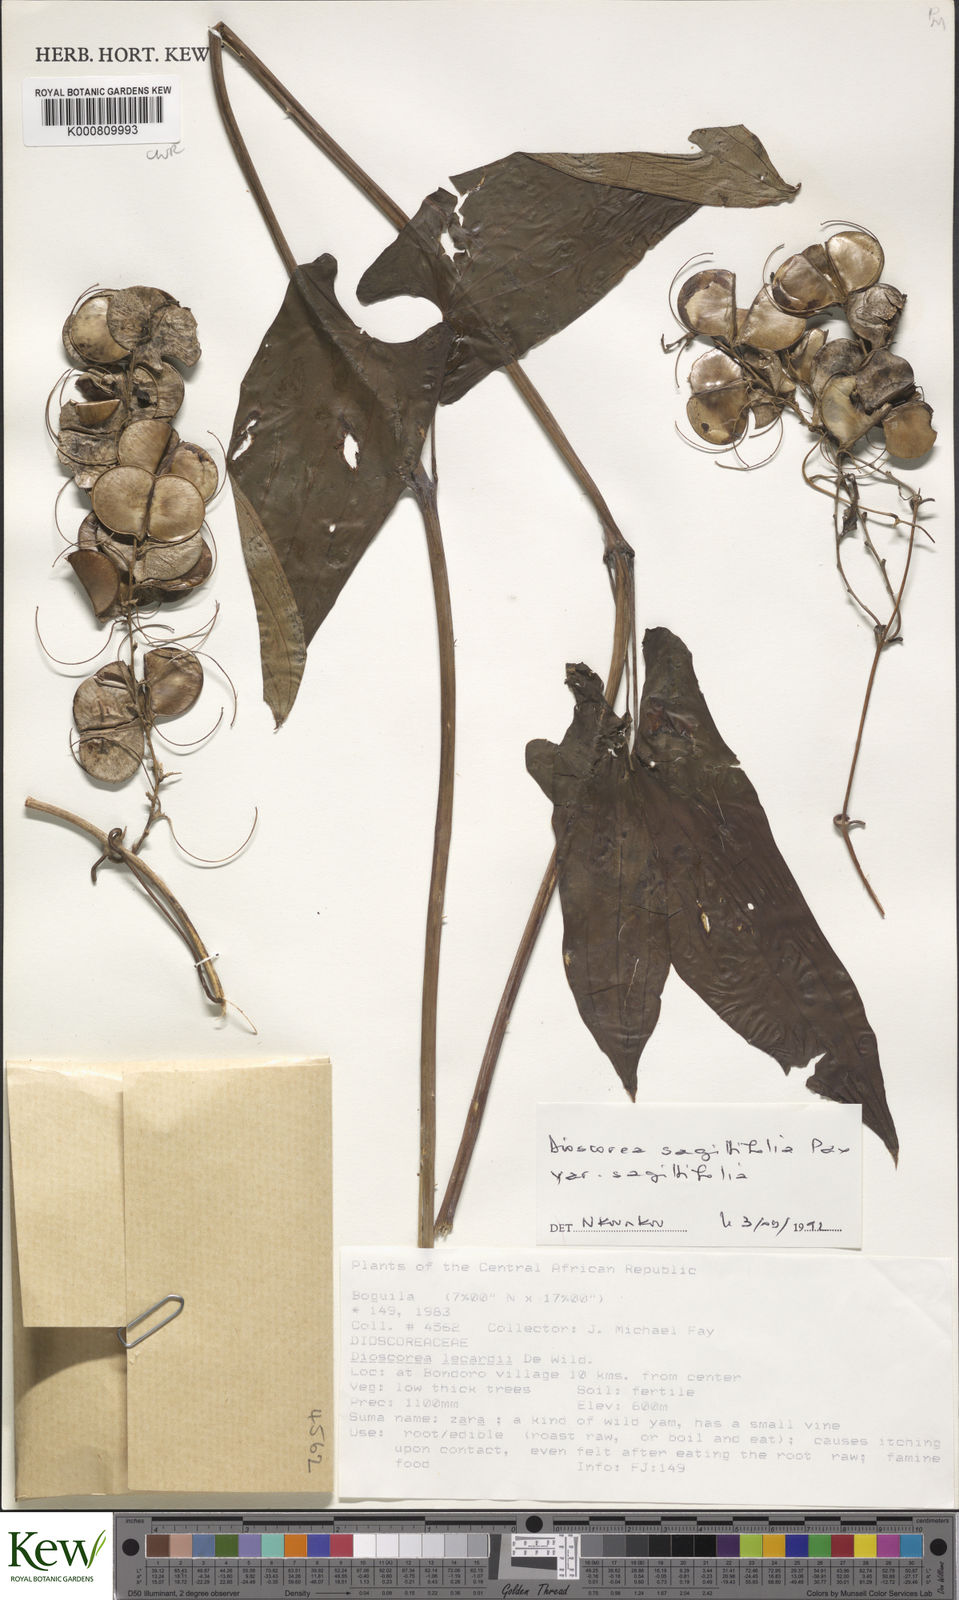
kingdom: Plantae
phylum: Tracheophyta
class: Liliopsida
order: Dioscoreales
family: Dioscoreaceae
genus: Dioscorea
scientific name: Dioscorea sagittifolia
